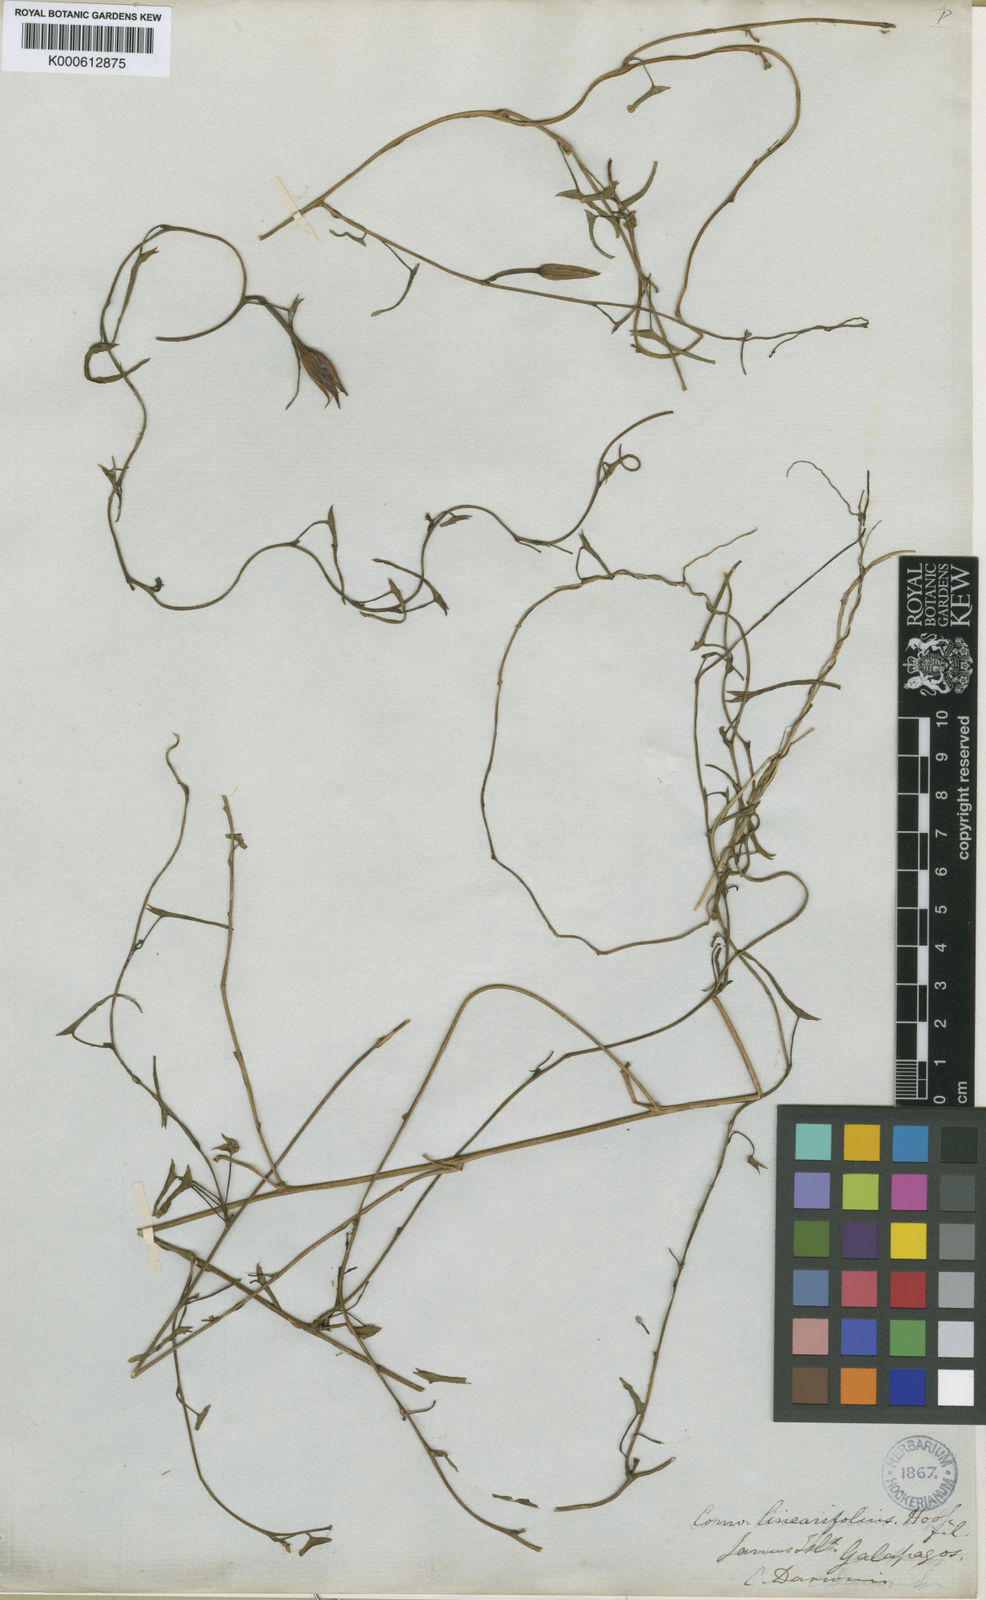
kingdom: Plantae
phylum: Tracheophyta
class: Magnoliopsida
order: Solanales
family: Convolvulaceae
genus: Ipomoea
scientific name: Ipomoea incarnata
